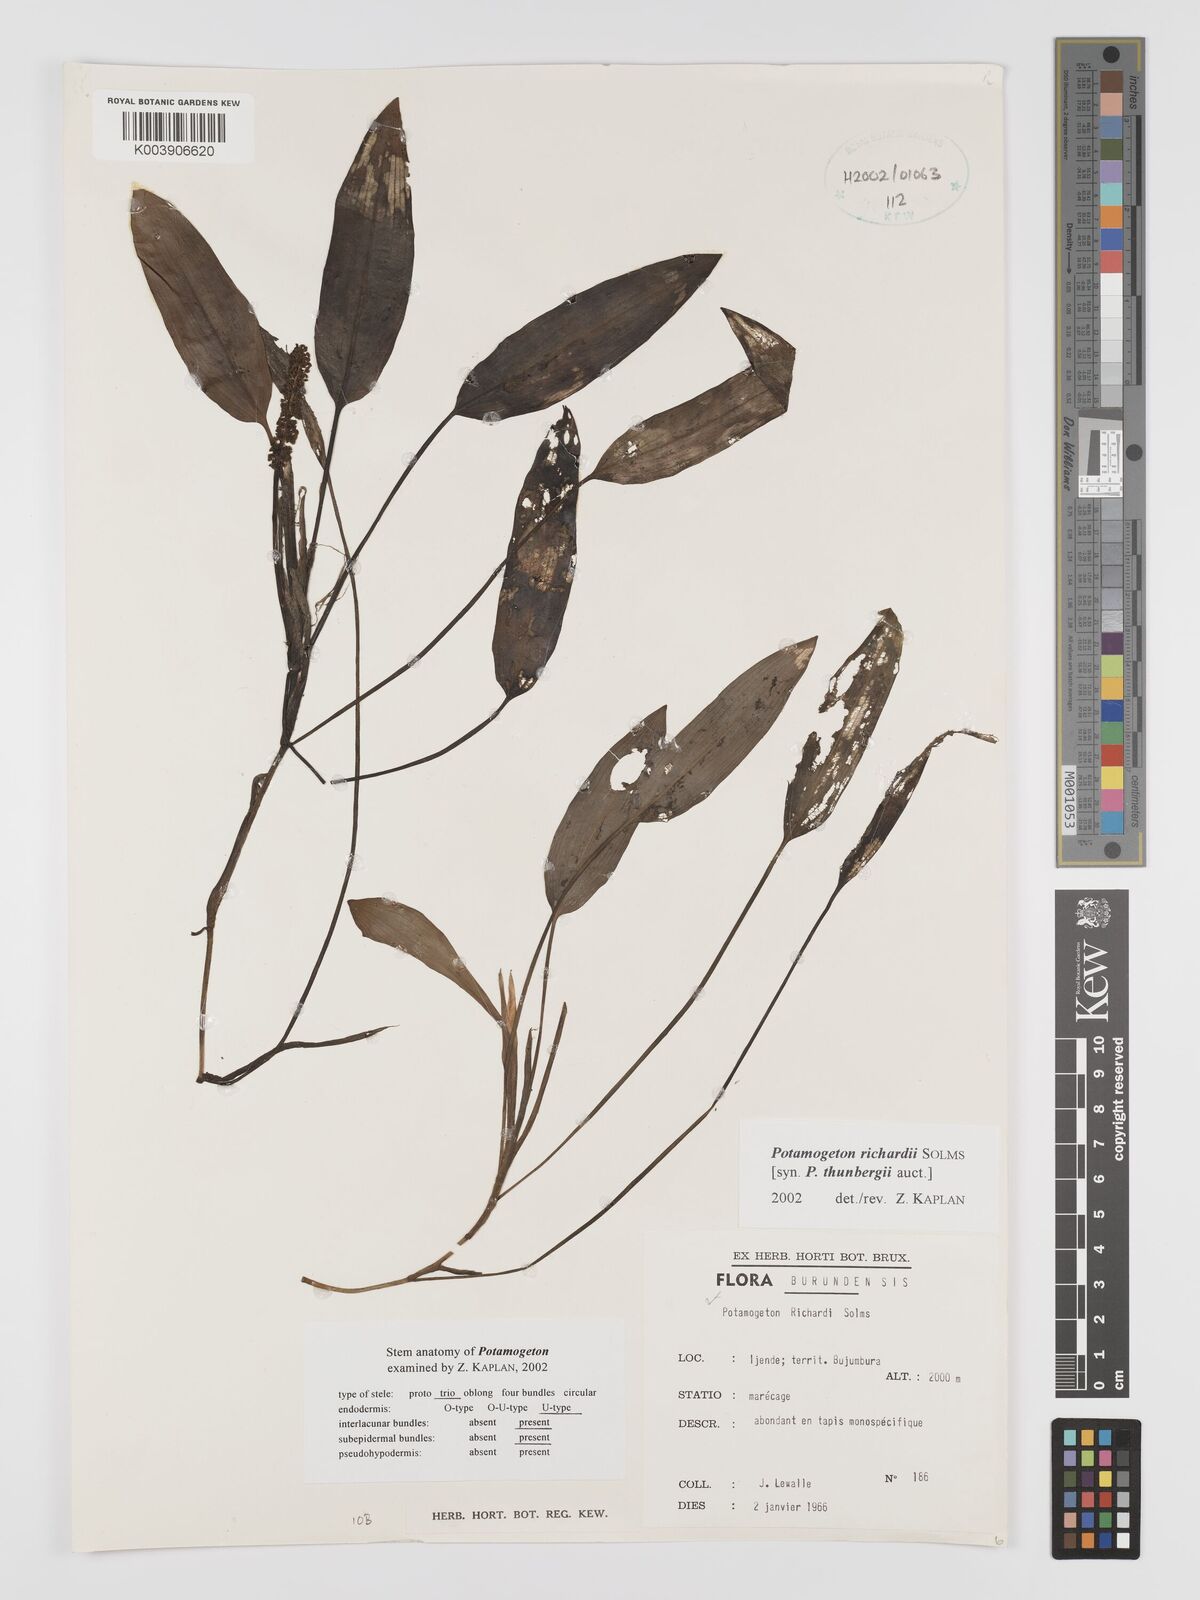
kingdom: Plantae
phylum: Tracheophyta
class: Liliopsida
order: Alismatales
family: Potamogetonaceae
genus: Potamogeton
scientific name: Potamogeton nodosus
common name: Loddon pondweed
